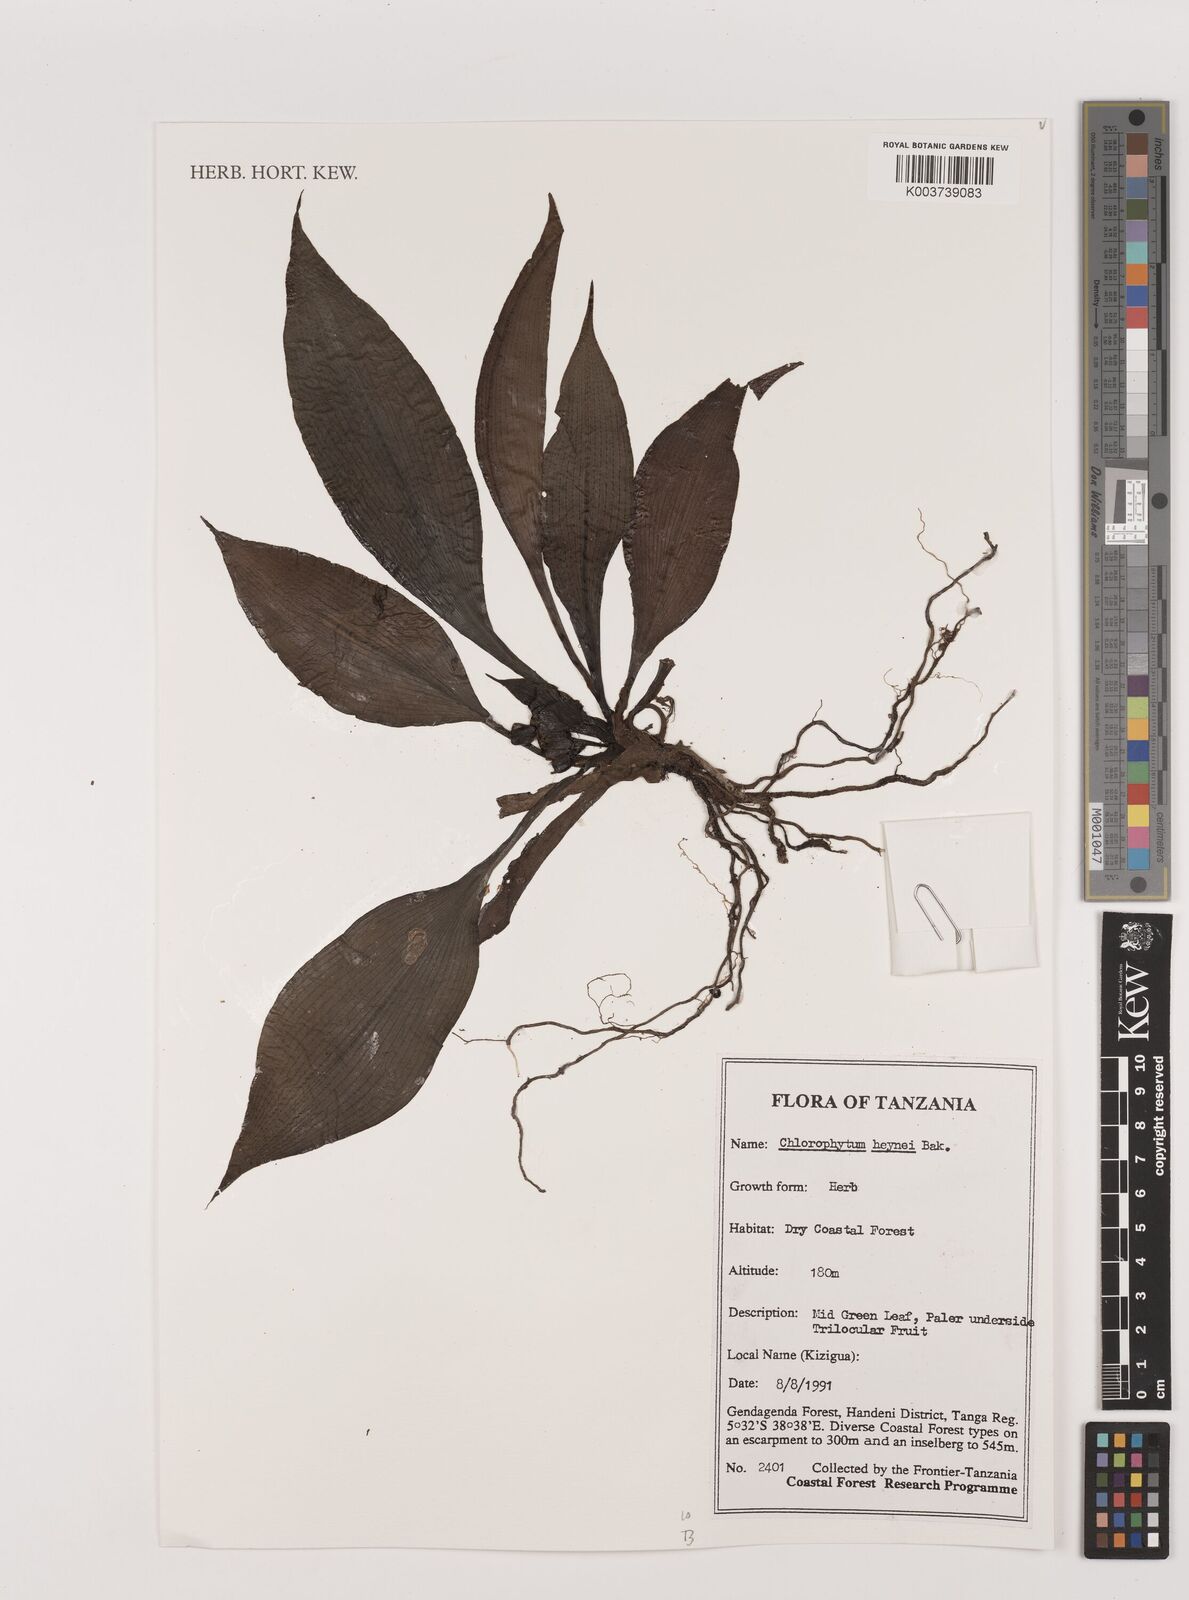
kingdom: Plantae
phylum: Tracheophyta
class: Liliopsida
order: Asparagales
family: Asparagaceae
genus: Chlorophytum
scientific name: Chlorophytum heynei
